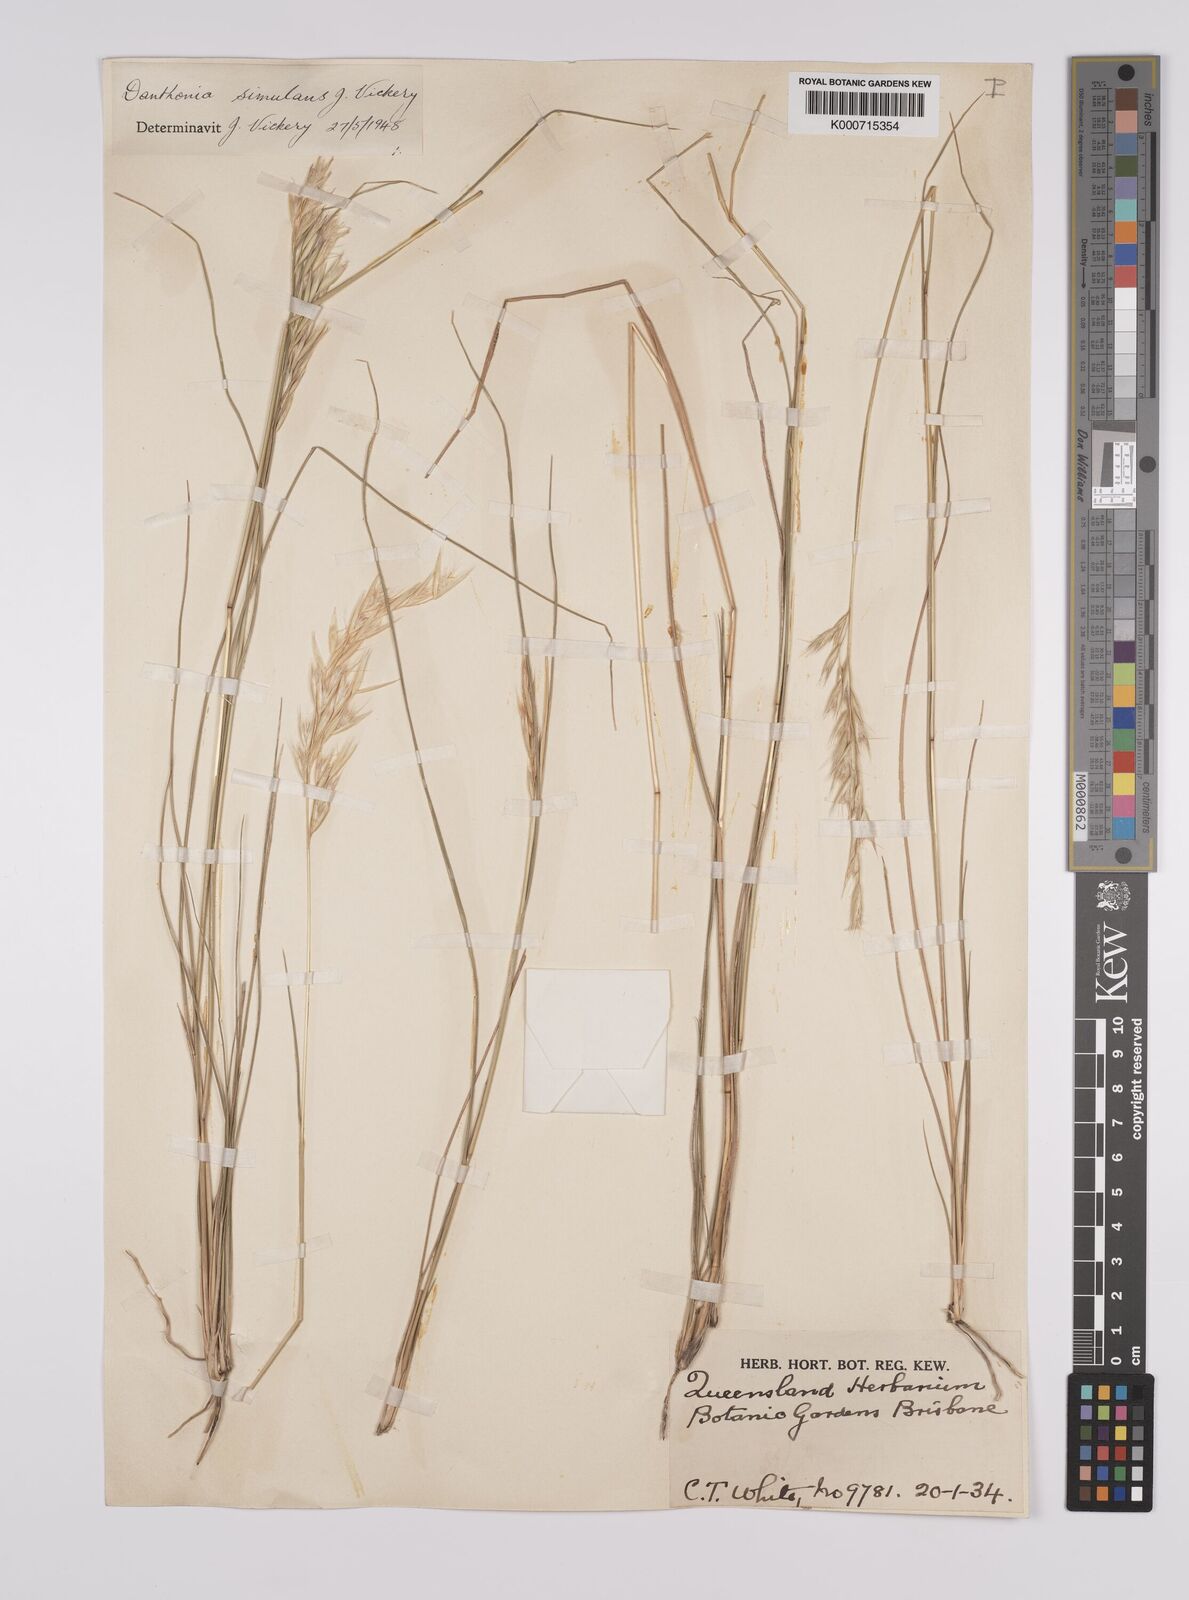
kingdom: Plantae
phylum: Tracheophyta
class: Liliopsida
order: Poales
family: Poaceae
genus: Rytidosperma
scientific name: Rytidosperma bipartitum
